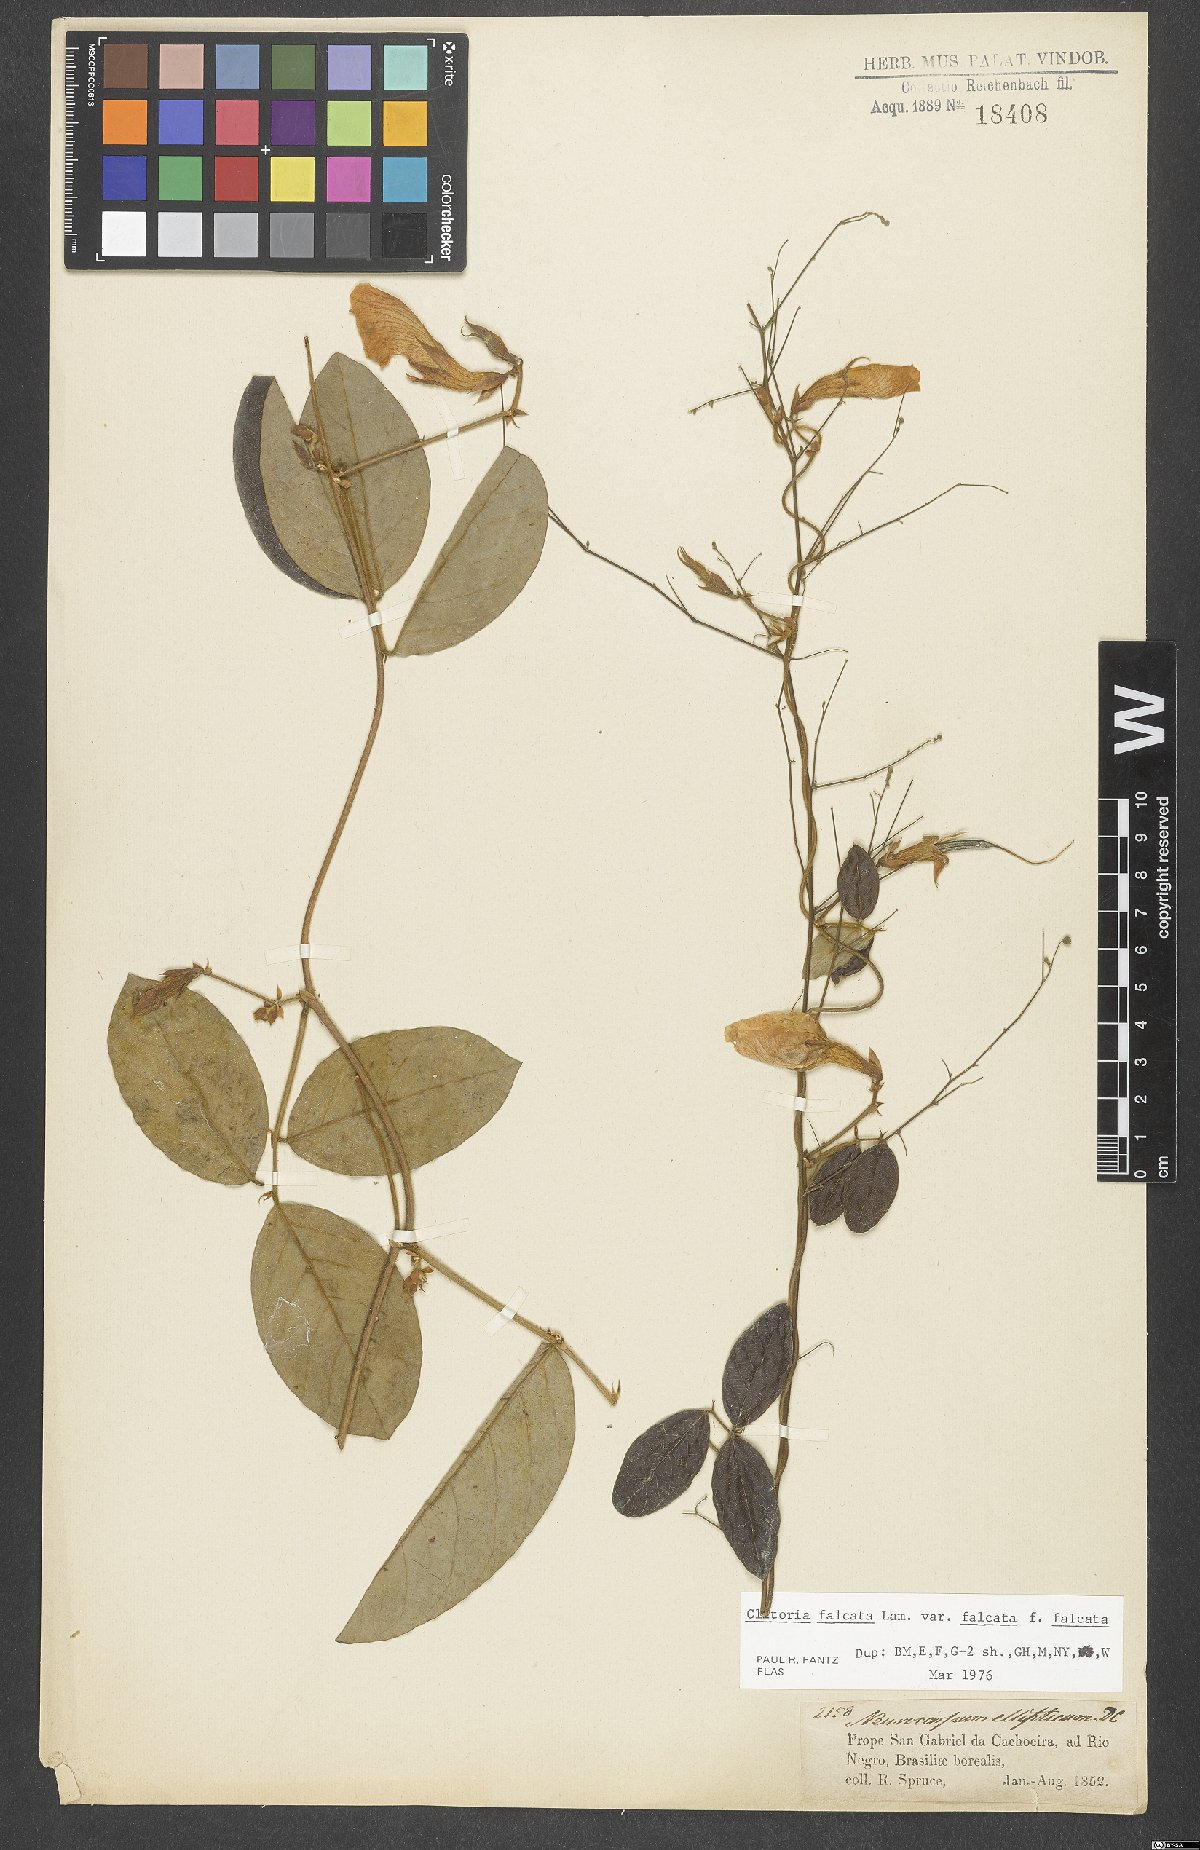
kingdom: Plantae
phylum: Tracheophyta
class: Magnoliopsida
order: Fabales
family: Fabaceae
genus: Clitoria
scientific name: Clitoria falcata
